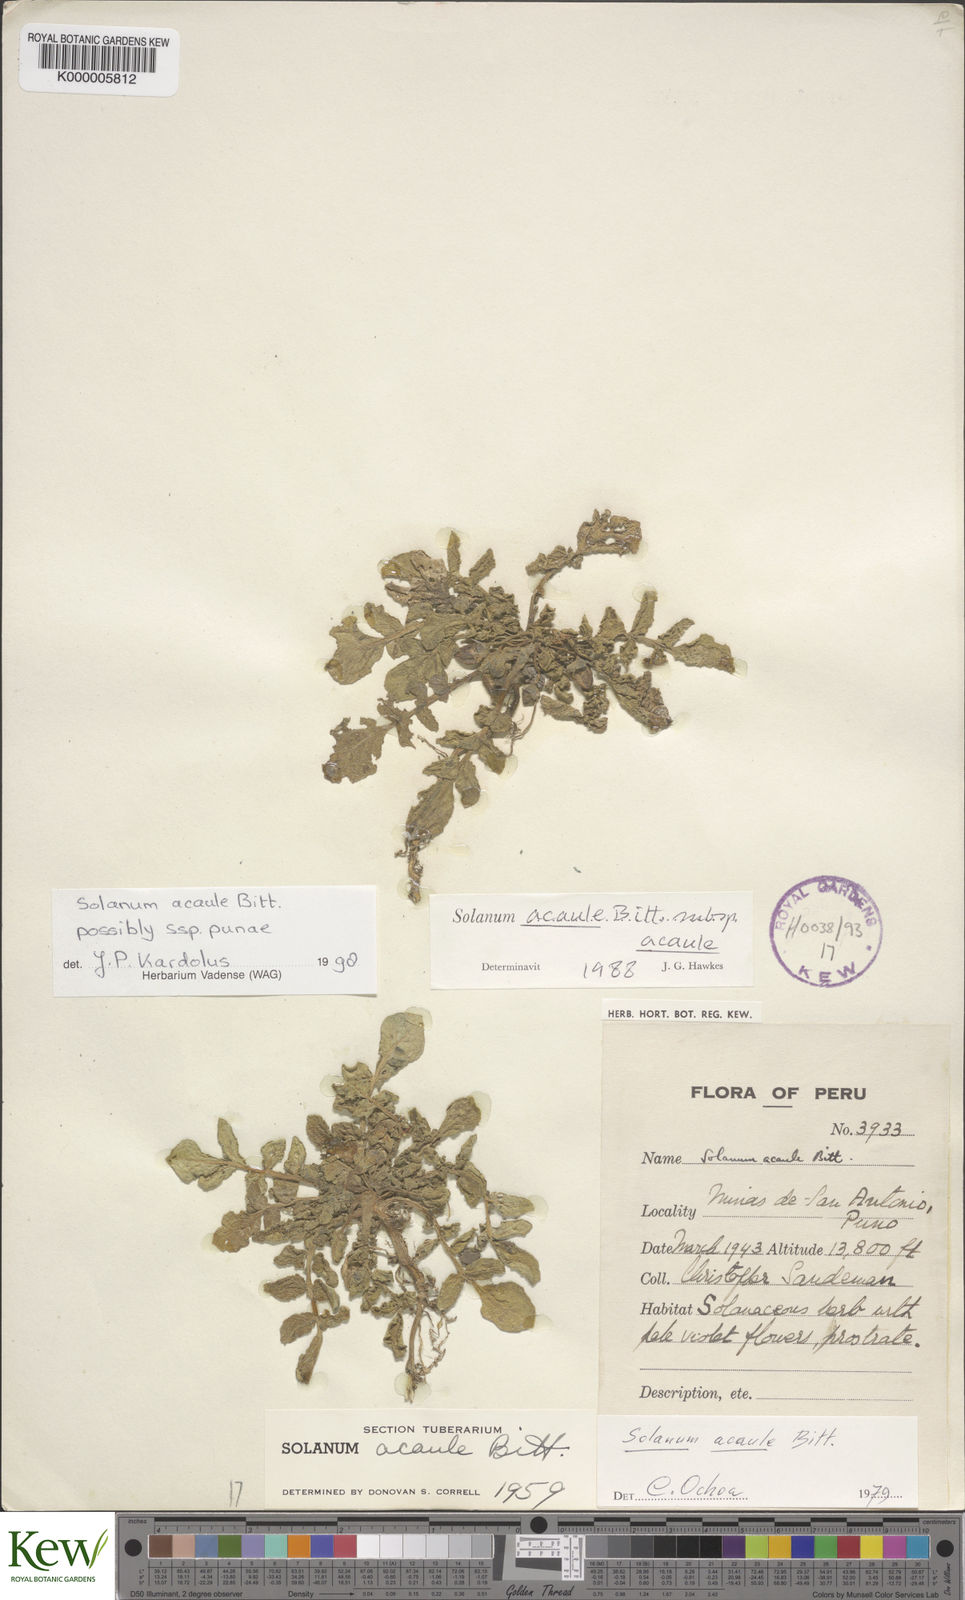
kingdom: Plantae
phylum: Tracheophyta
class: Magnoliopsida
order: Solanales
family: Solanaceae
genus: Solanum
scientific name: Solanum acaule
